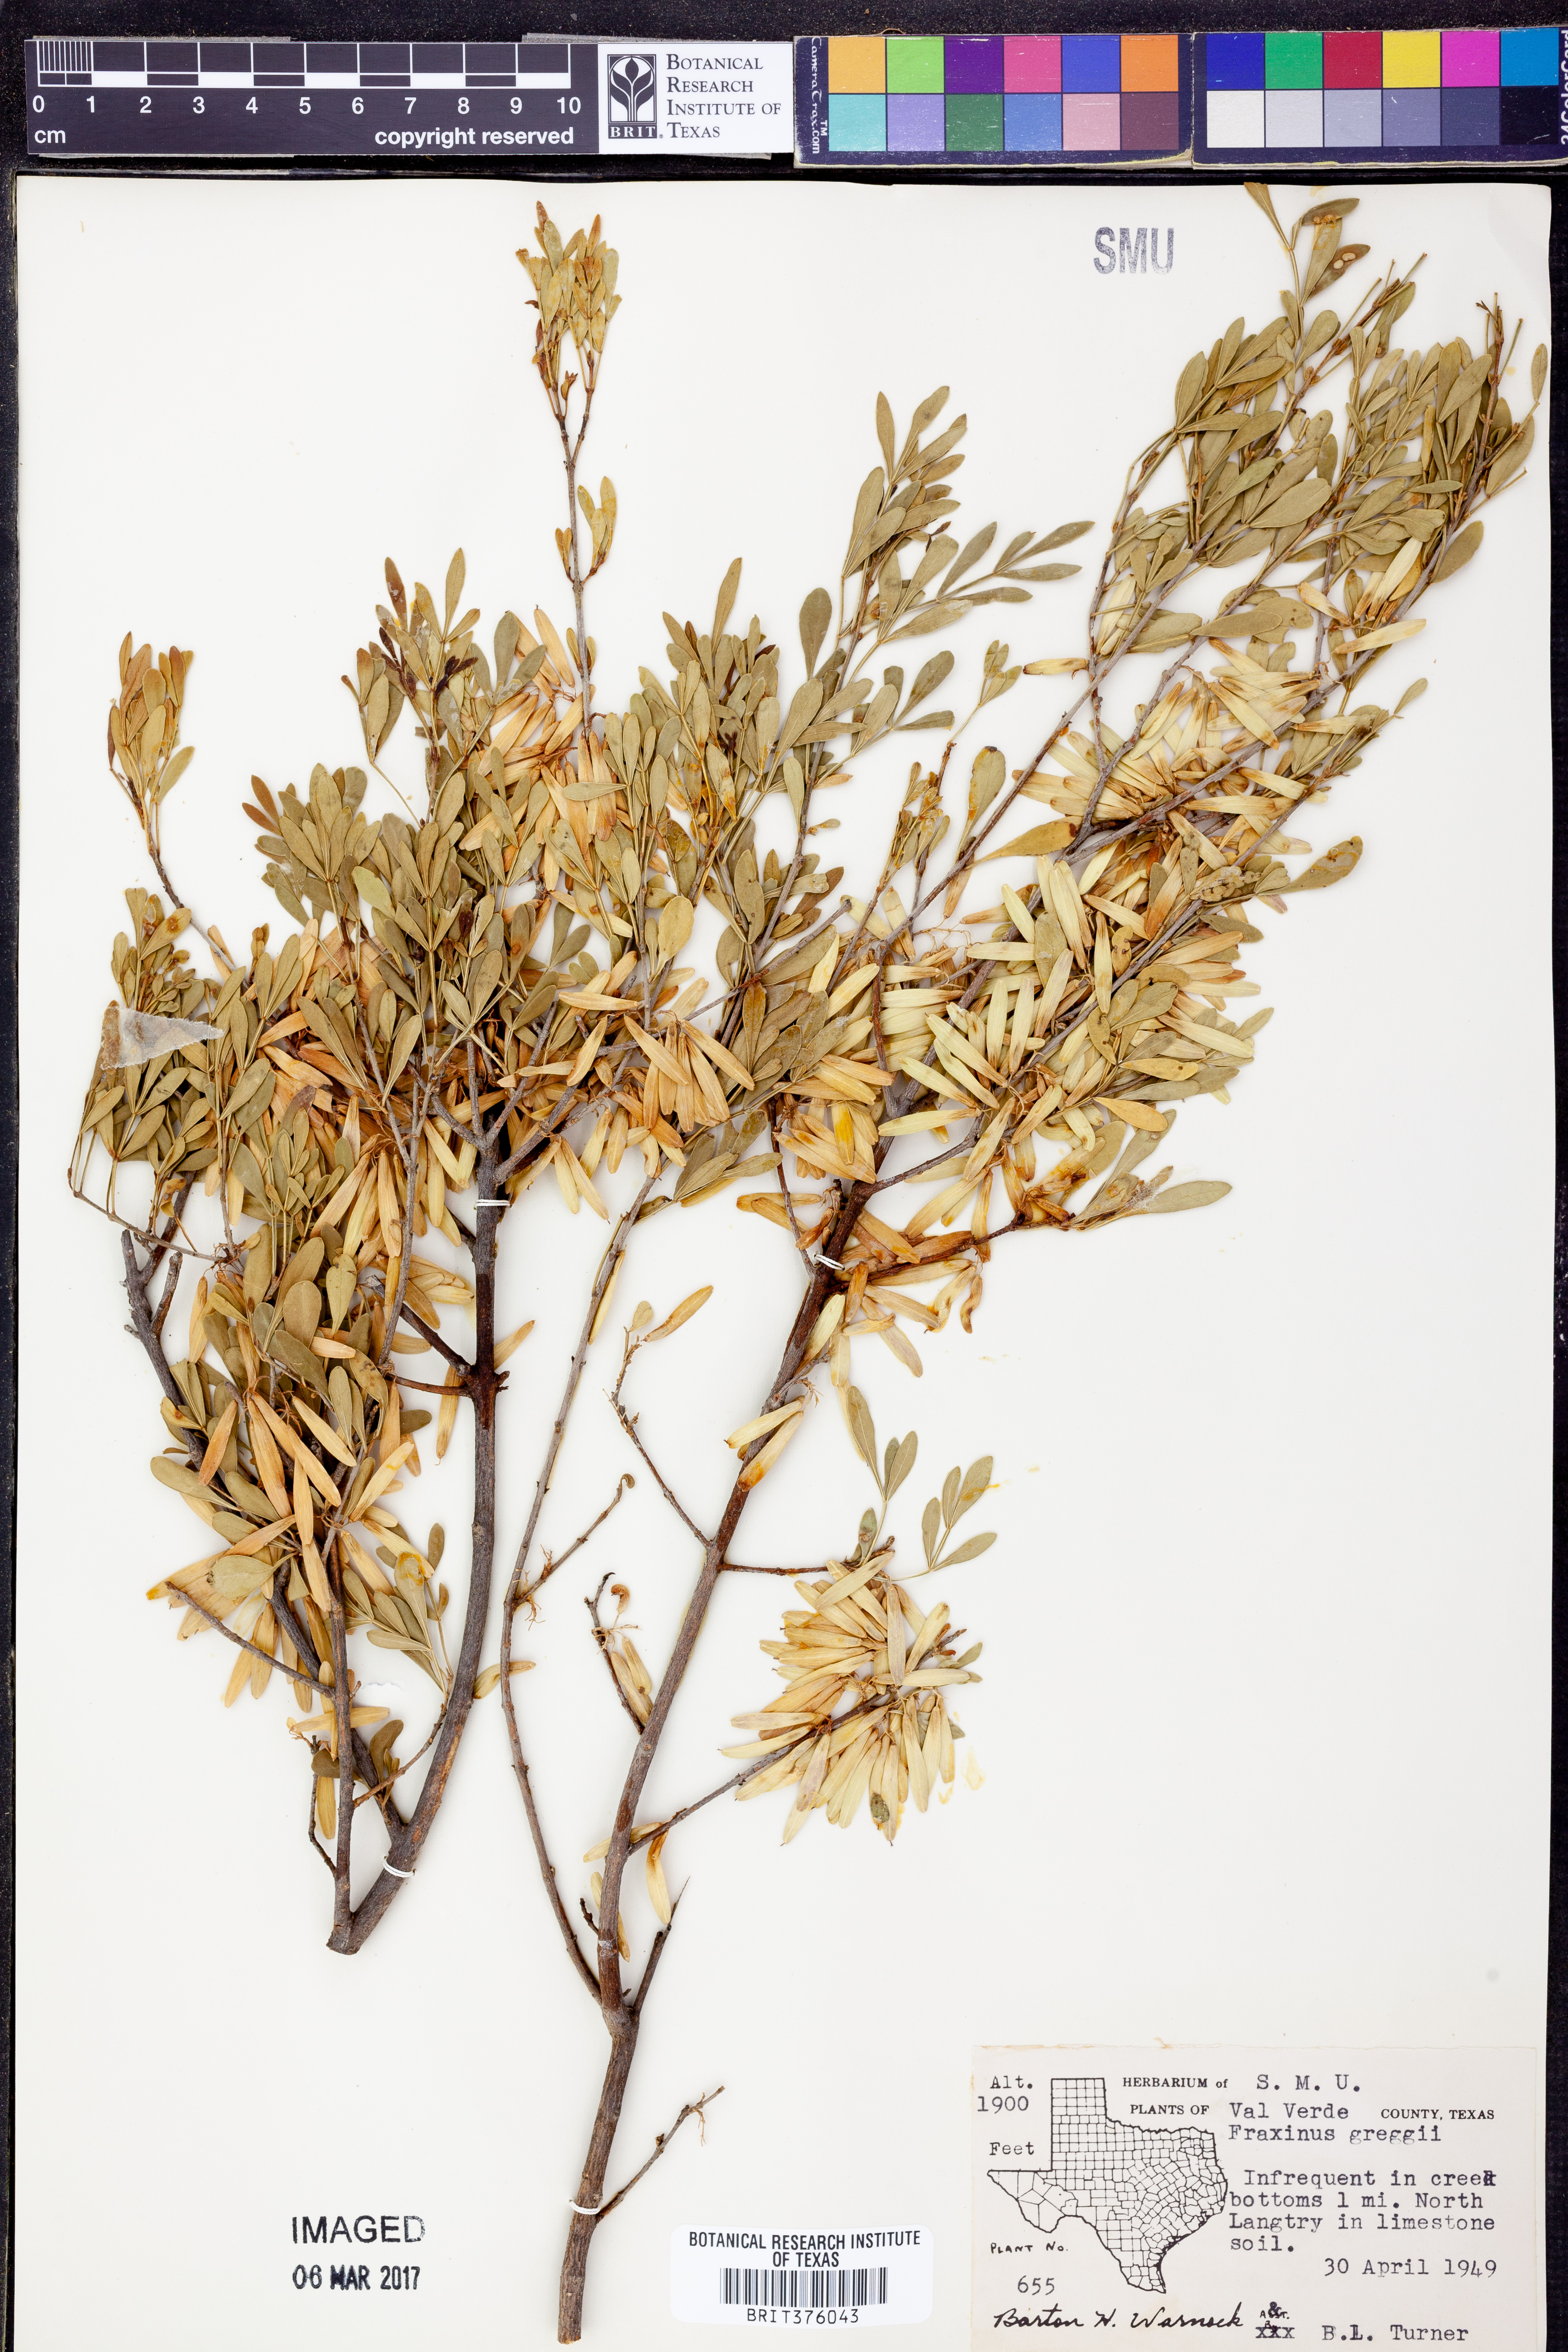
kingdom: Plantae
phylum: Tracheophyta
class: Magnoliopsida
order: Lamiales
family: Oleaceae
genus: Fraxinus
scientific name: Fraxinus greggii
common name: Gregg ash
